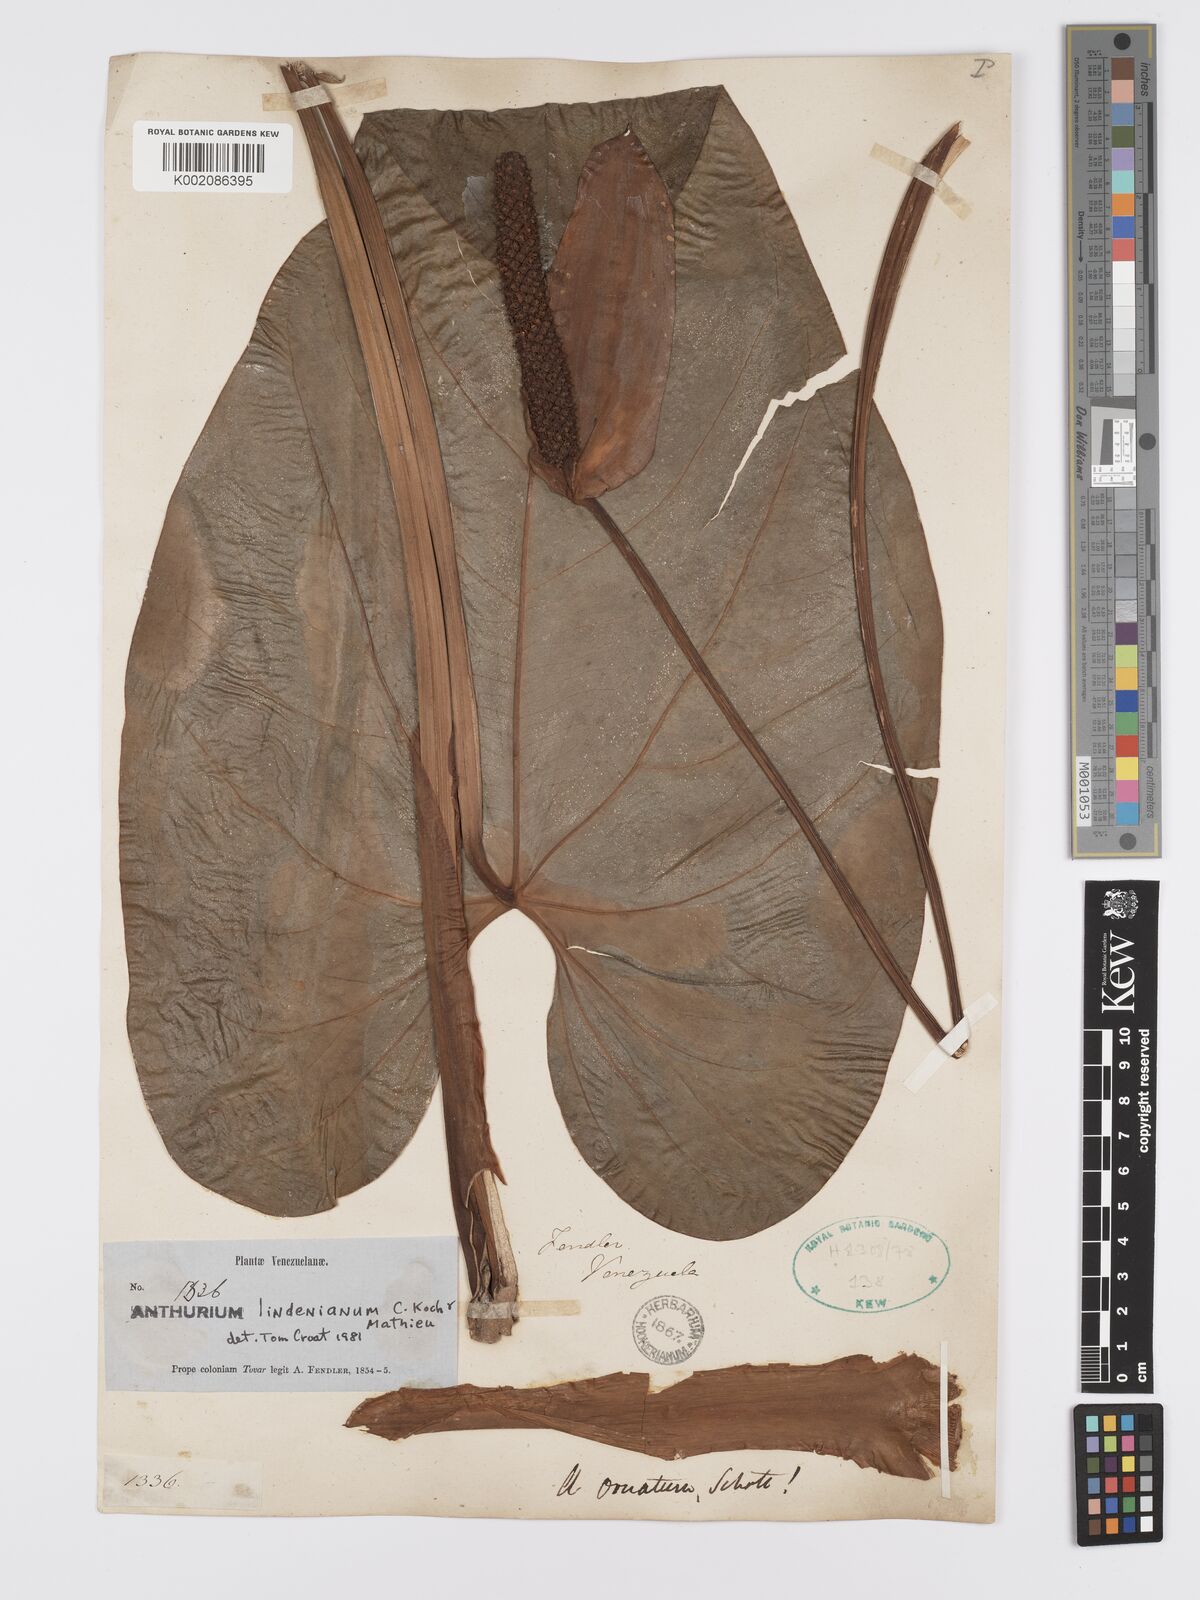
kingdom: Plantae
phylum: Tracheophyta
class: Liliopsida
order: Alismatales
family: Araceae
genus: Anthurium
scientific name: Anthurium lindenianum
